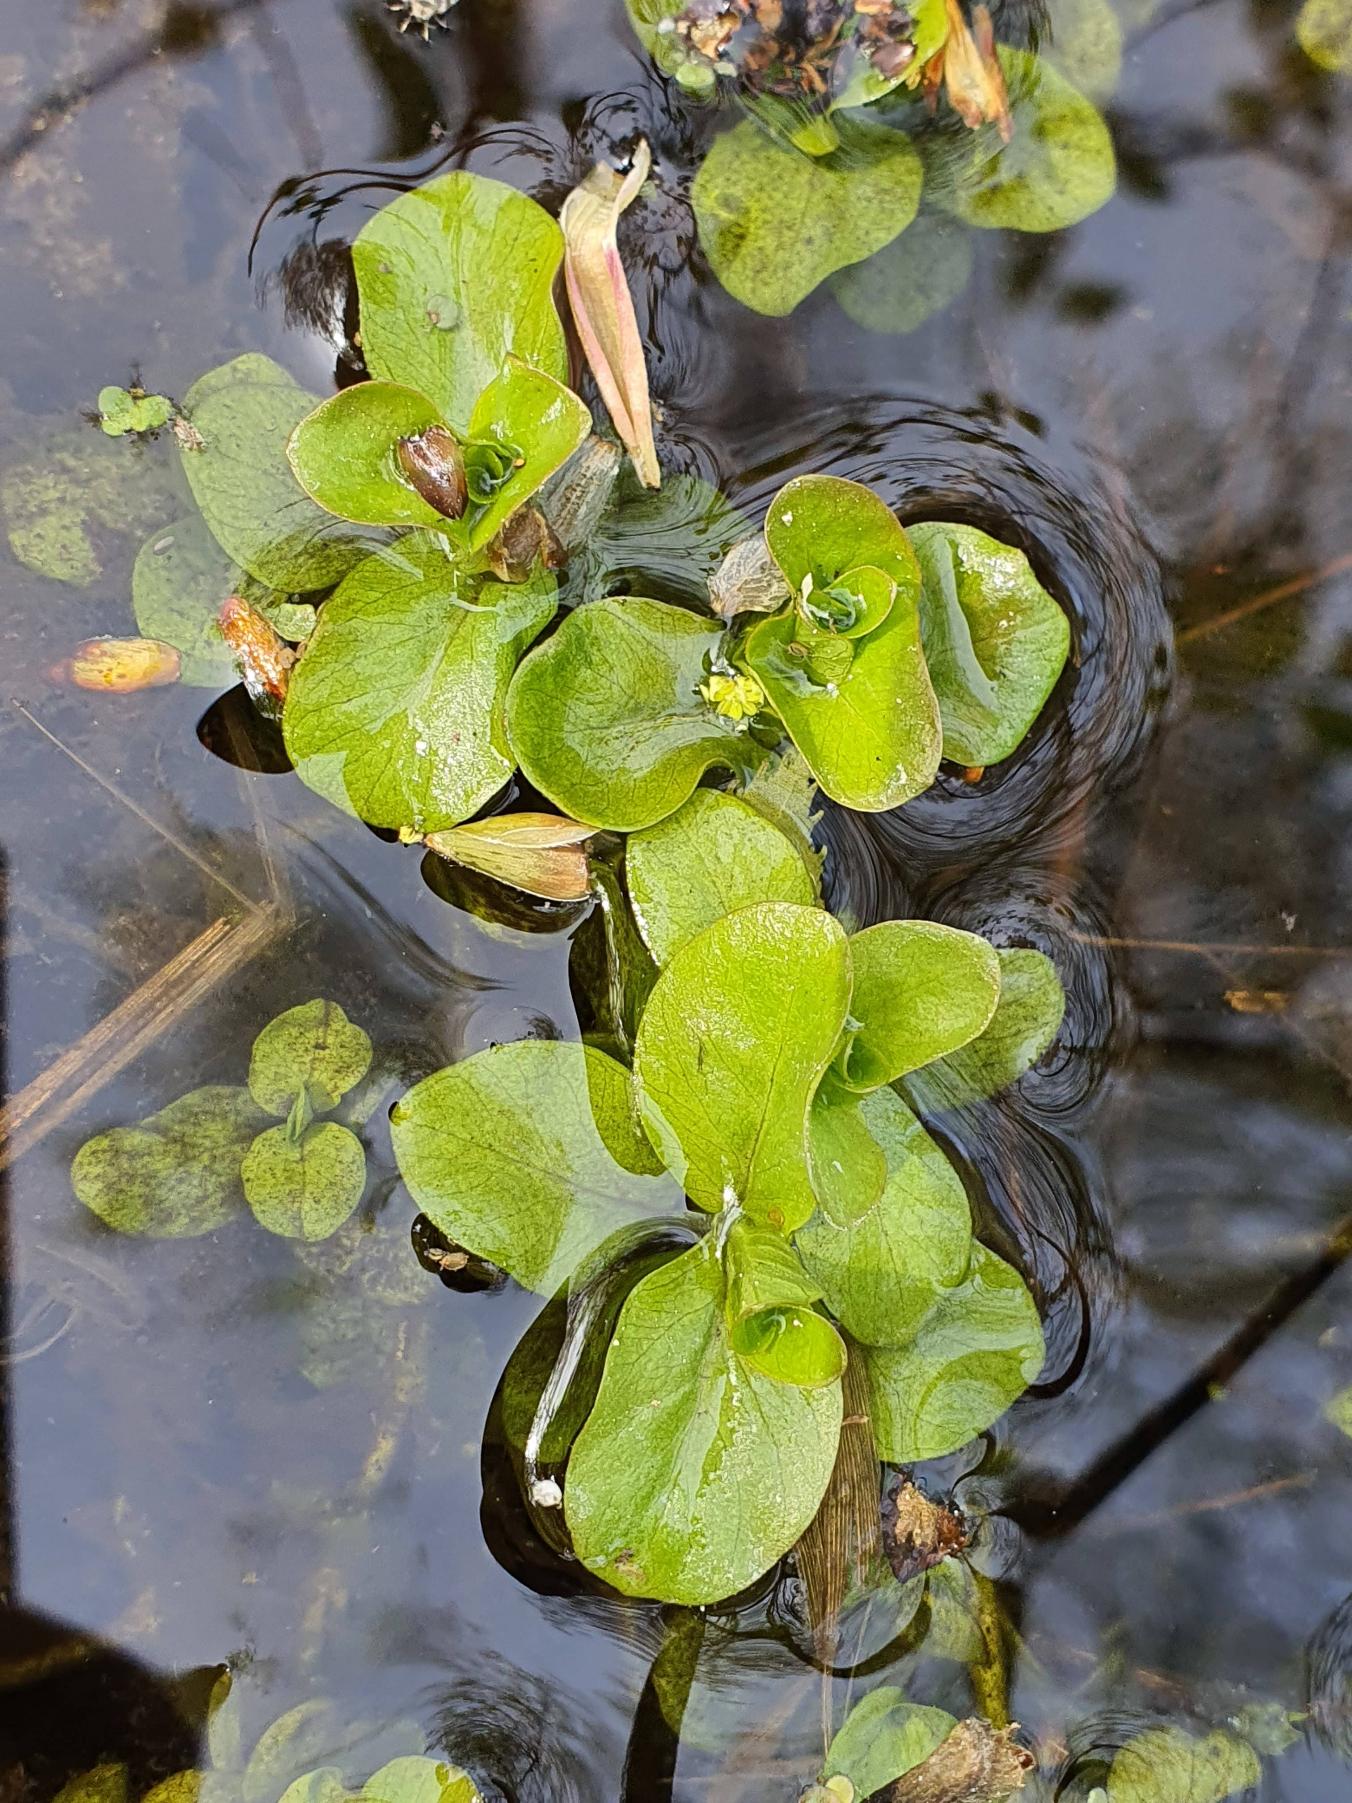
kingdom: Plantae
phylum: Tracheophyta
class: Magnoliopsida
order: Lamiales
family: Plantaginaceae
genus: Veronica
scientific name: Veronica beccabunga
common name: Tykbladet ærenpris
